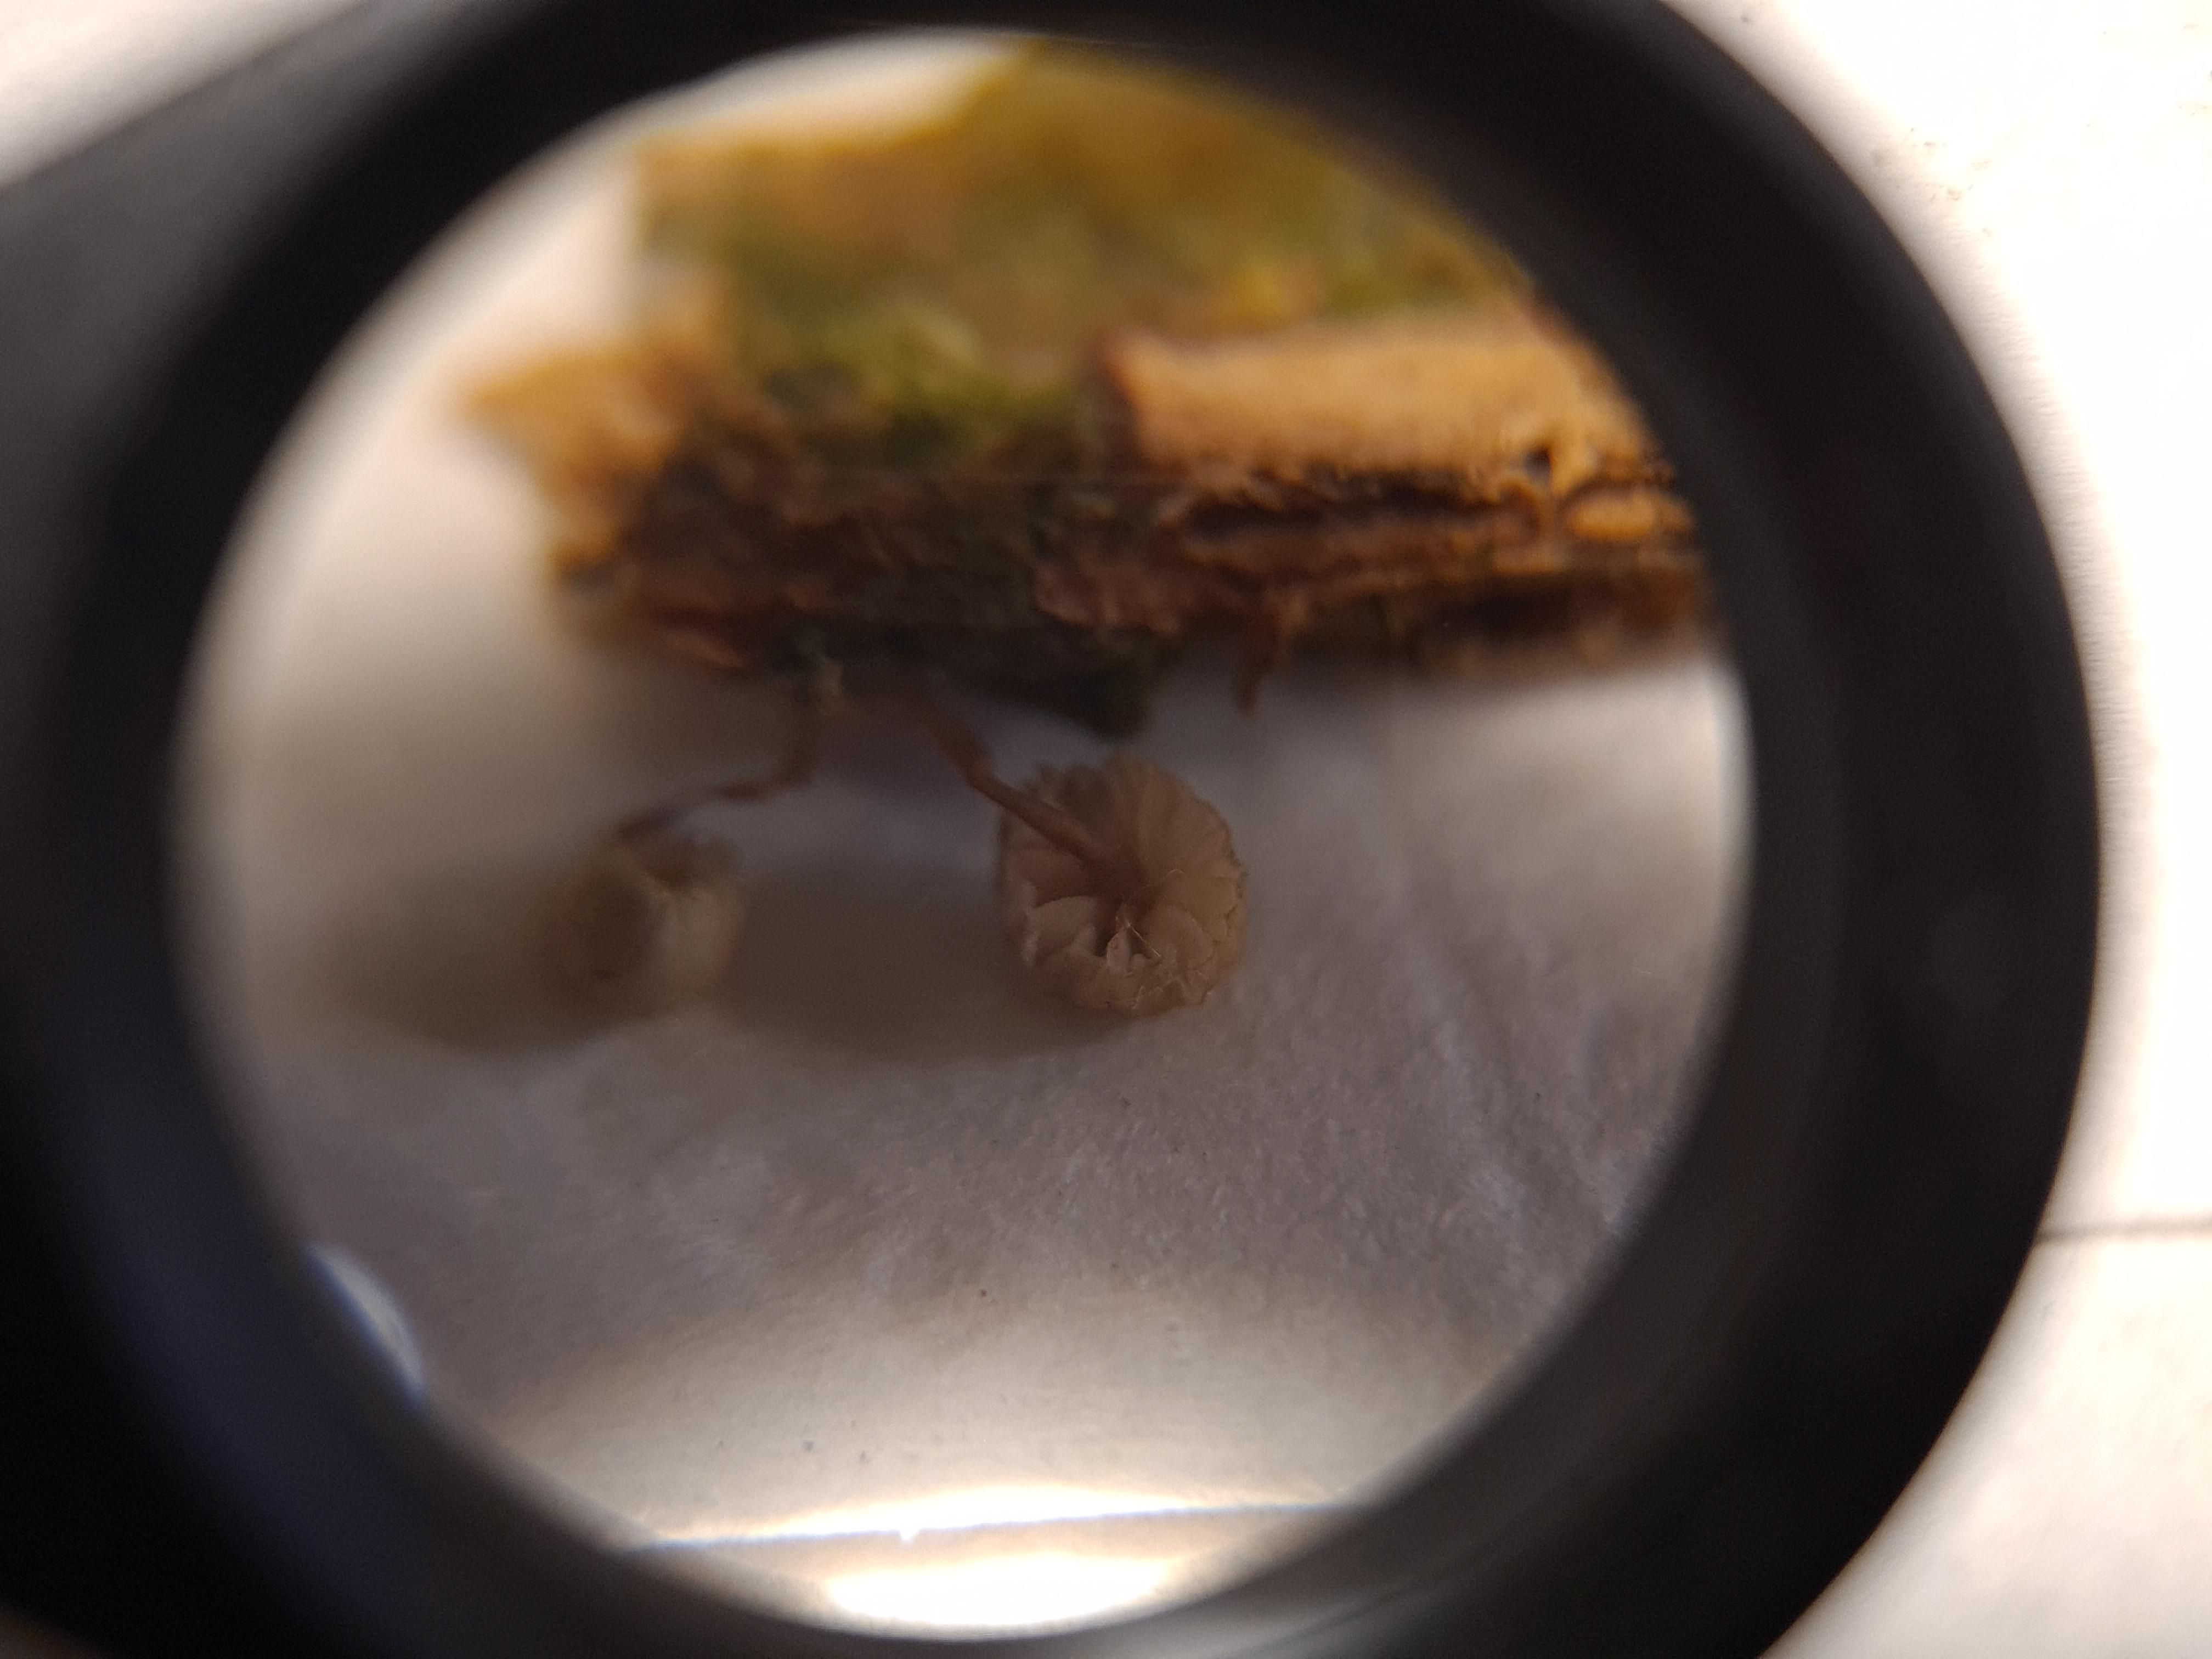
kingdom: Fungi
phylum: Basidiomycota
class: Agaricomycetes
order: Agaricales
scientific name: Agaricales
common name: champignonordenen
